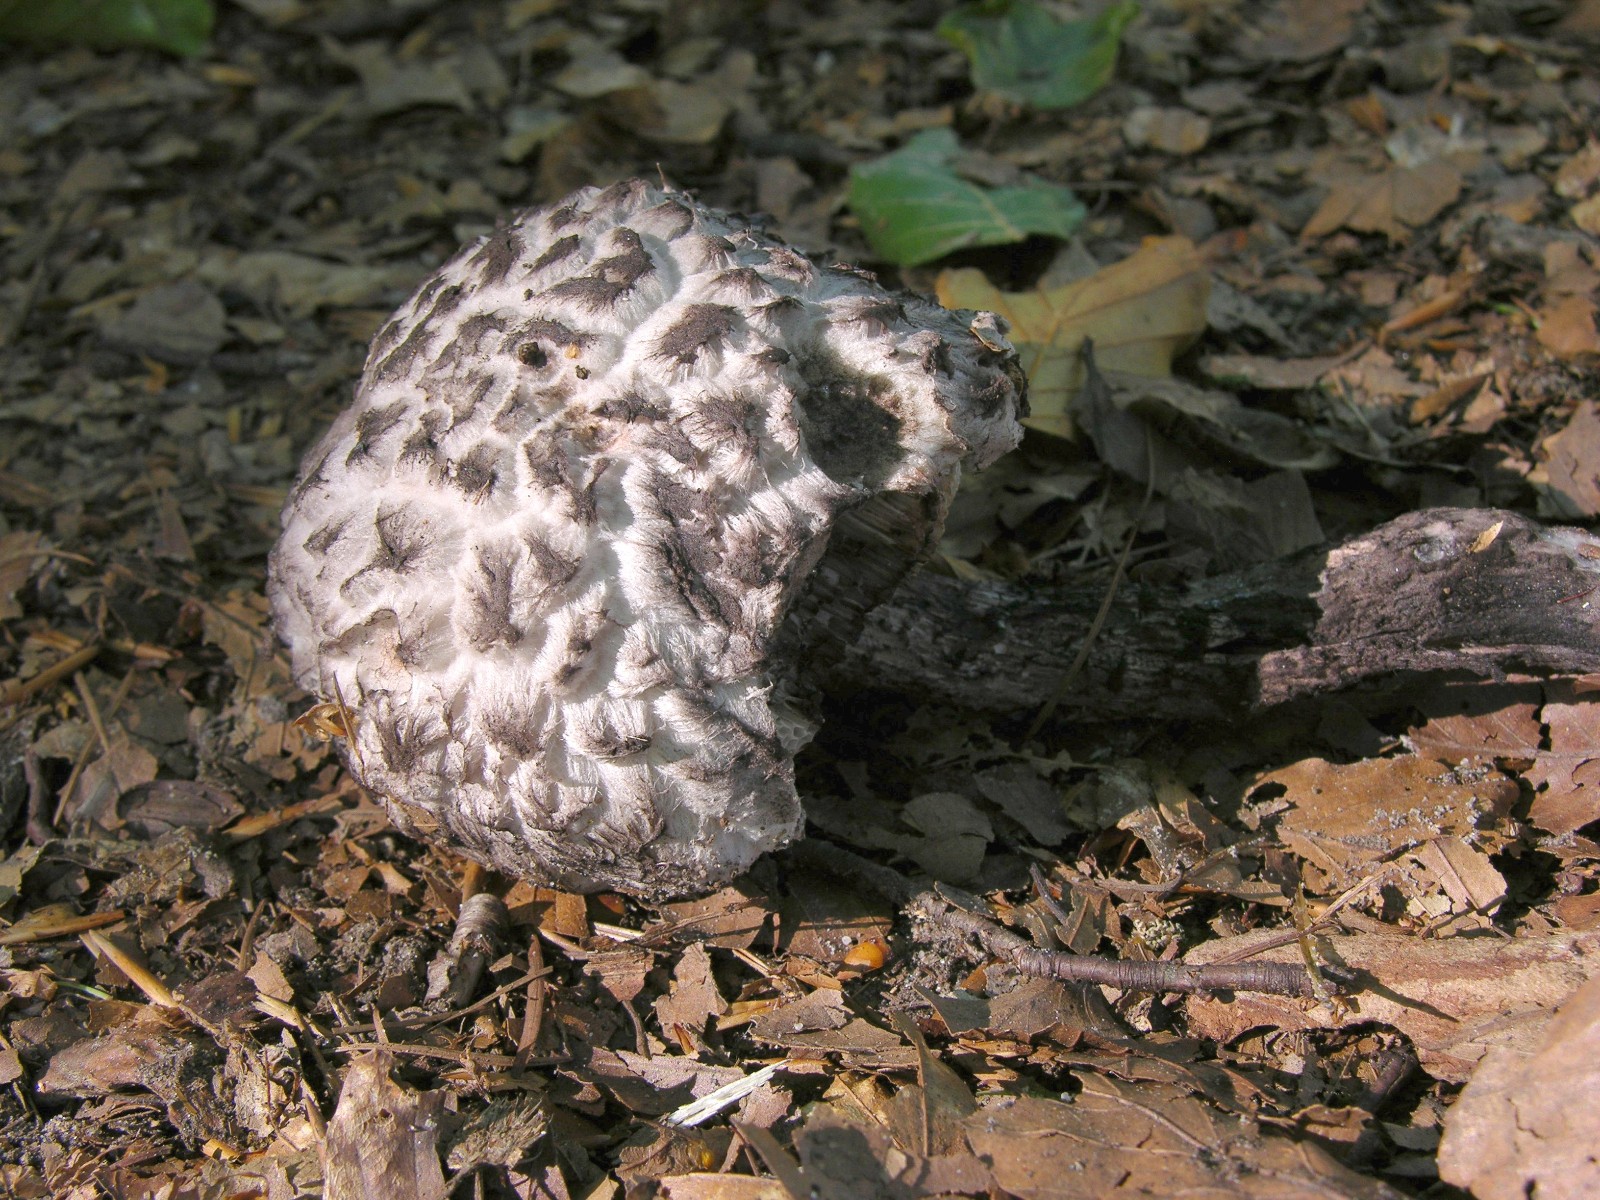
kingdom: Fungi
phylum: Basidiomycota
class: Agaricomycetes
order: Boletales
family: Boletaceae
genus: Strobilomyces
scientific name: Strobilomyces strobilaceus
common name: koglerørhat
